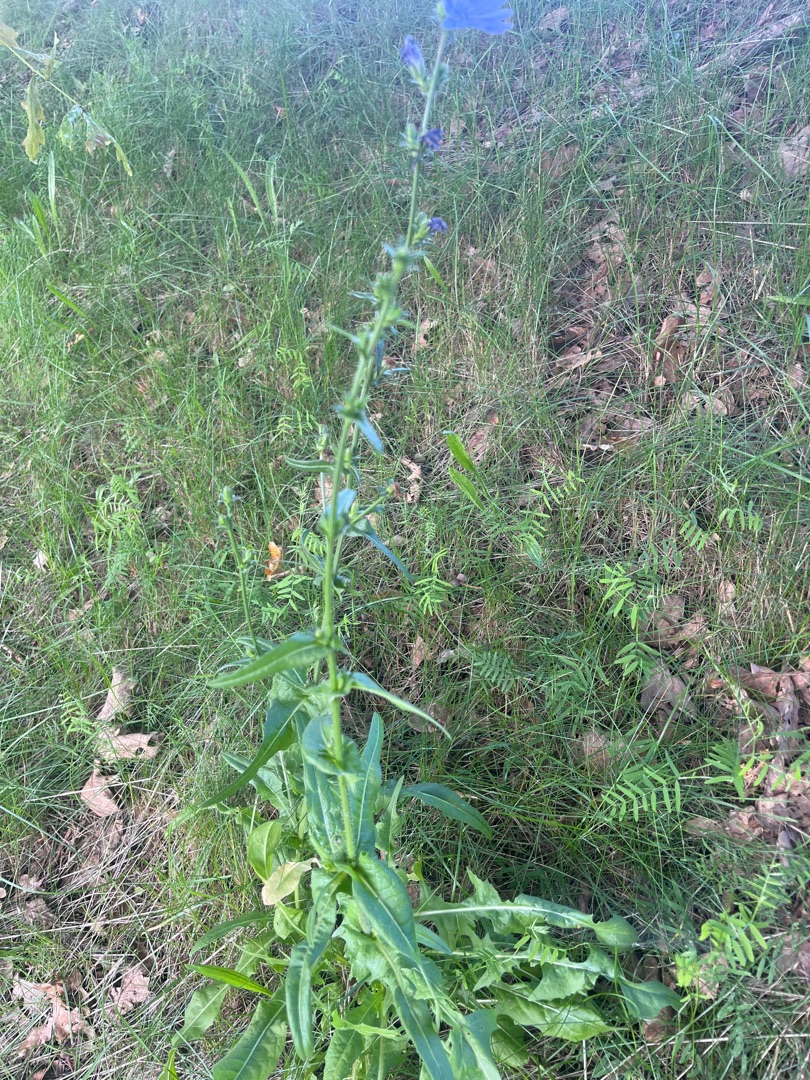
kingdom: Plantae
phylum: Tracheophyta
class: Magnoliopsida
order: Asterales
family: Asteraceae
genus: Cichorium
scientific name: Cichorium intybus
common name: Cikorie
